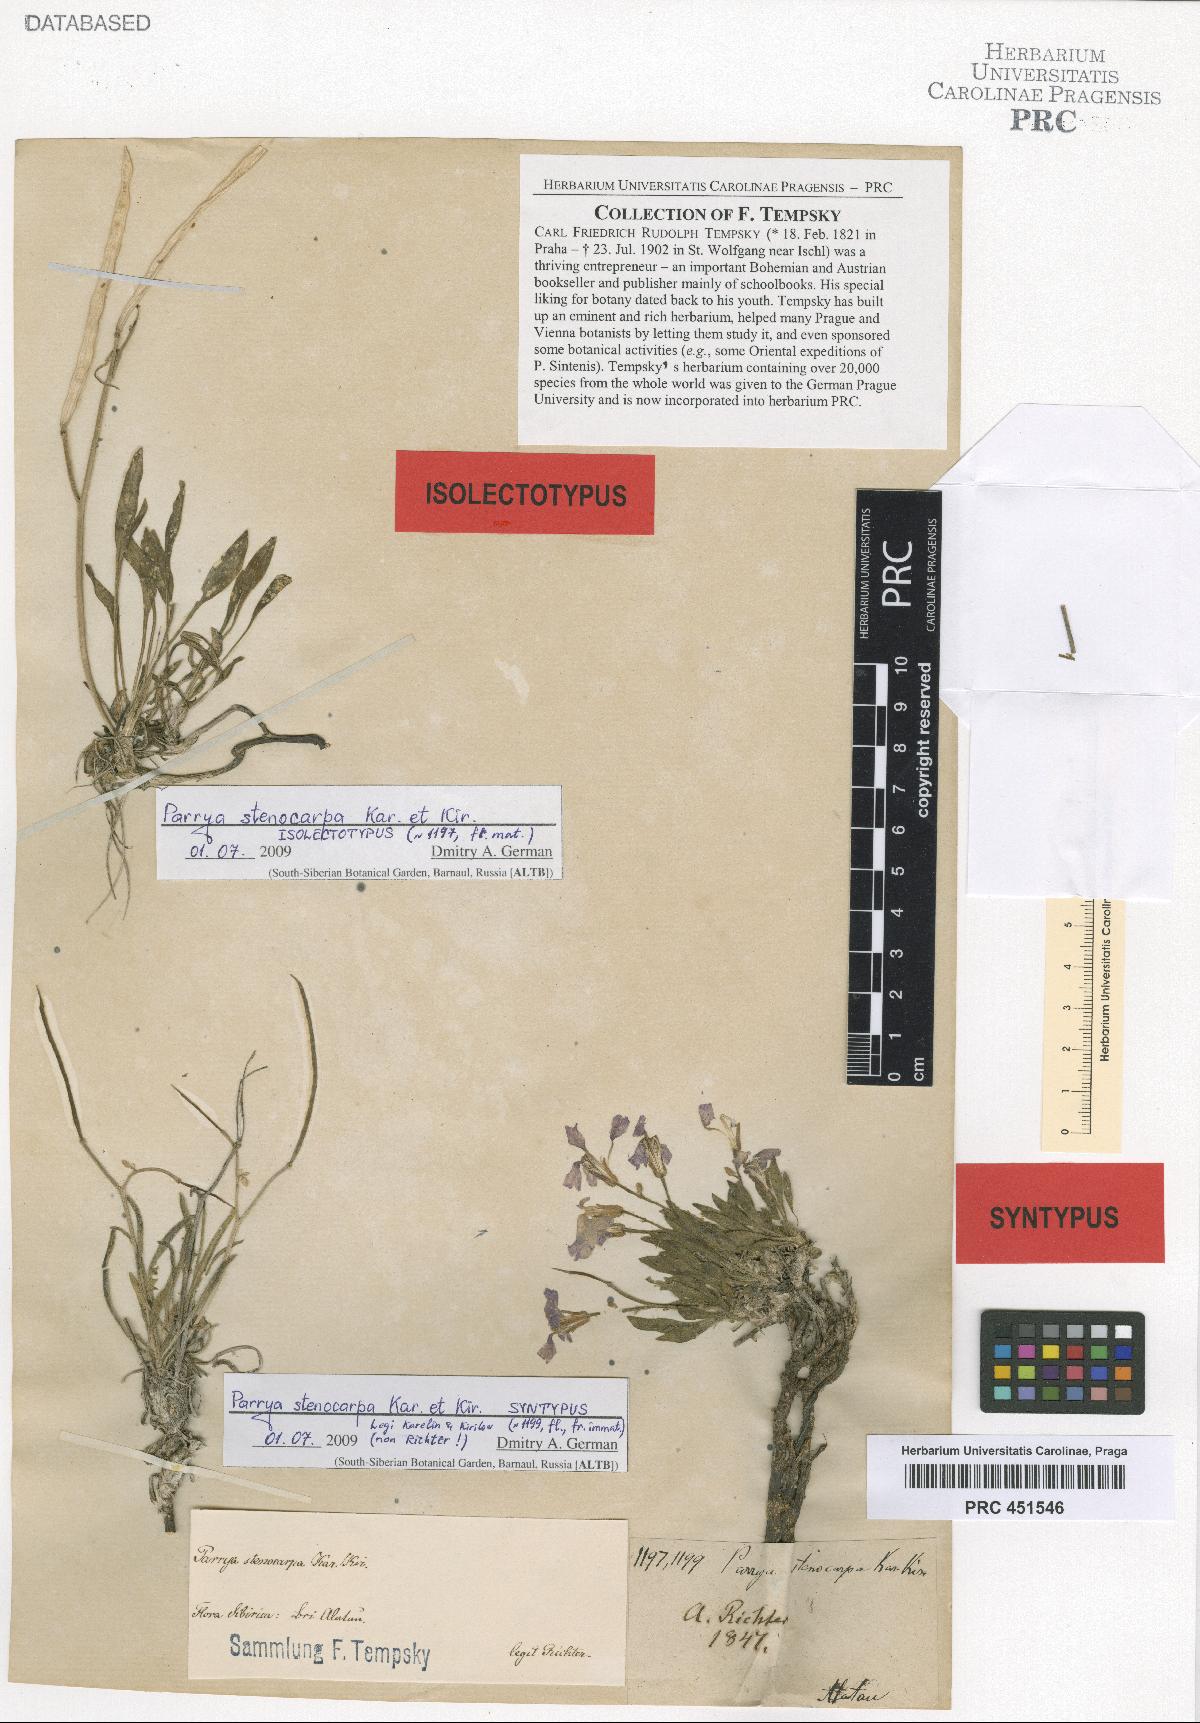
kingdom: Plantae
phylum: Tracheophyta
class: Magnoliopsida
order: Brassicales
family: Brassicaceae
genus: Parrya
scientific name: Parrya stenocarpa
